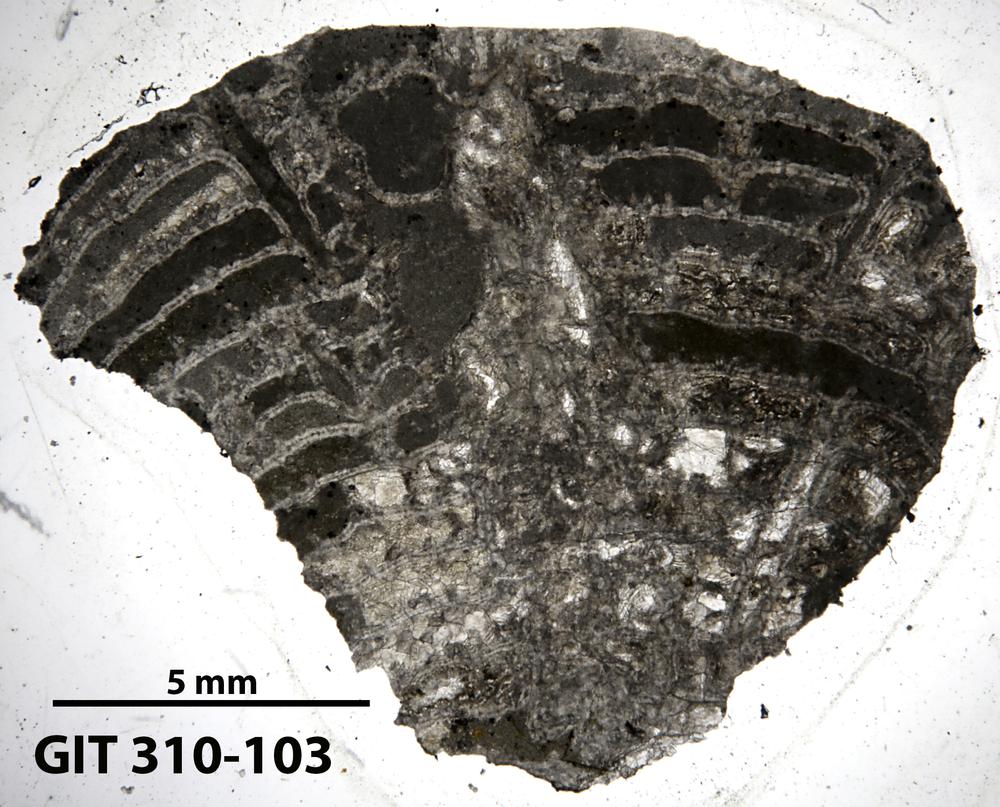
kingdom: Animalia
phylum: Porifera
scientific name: Porifera
